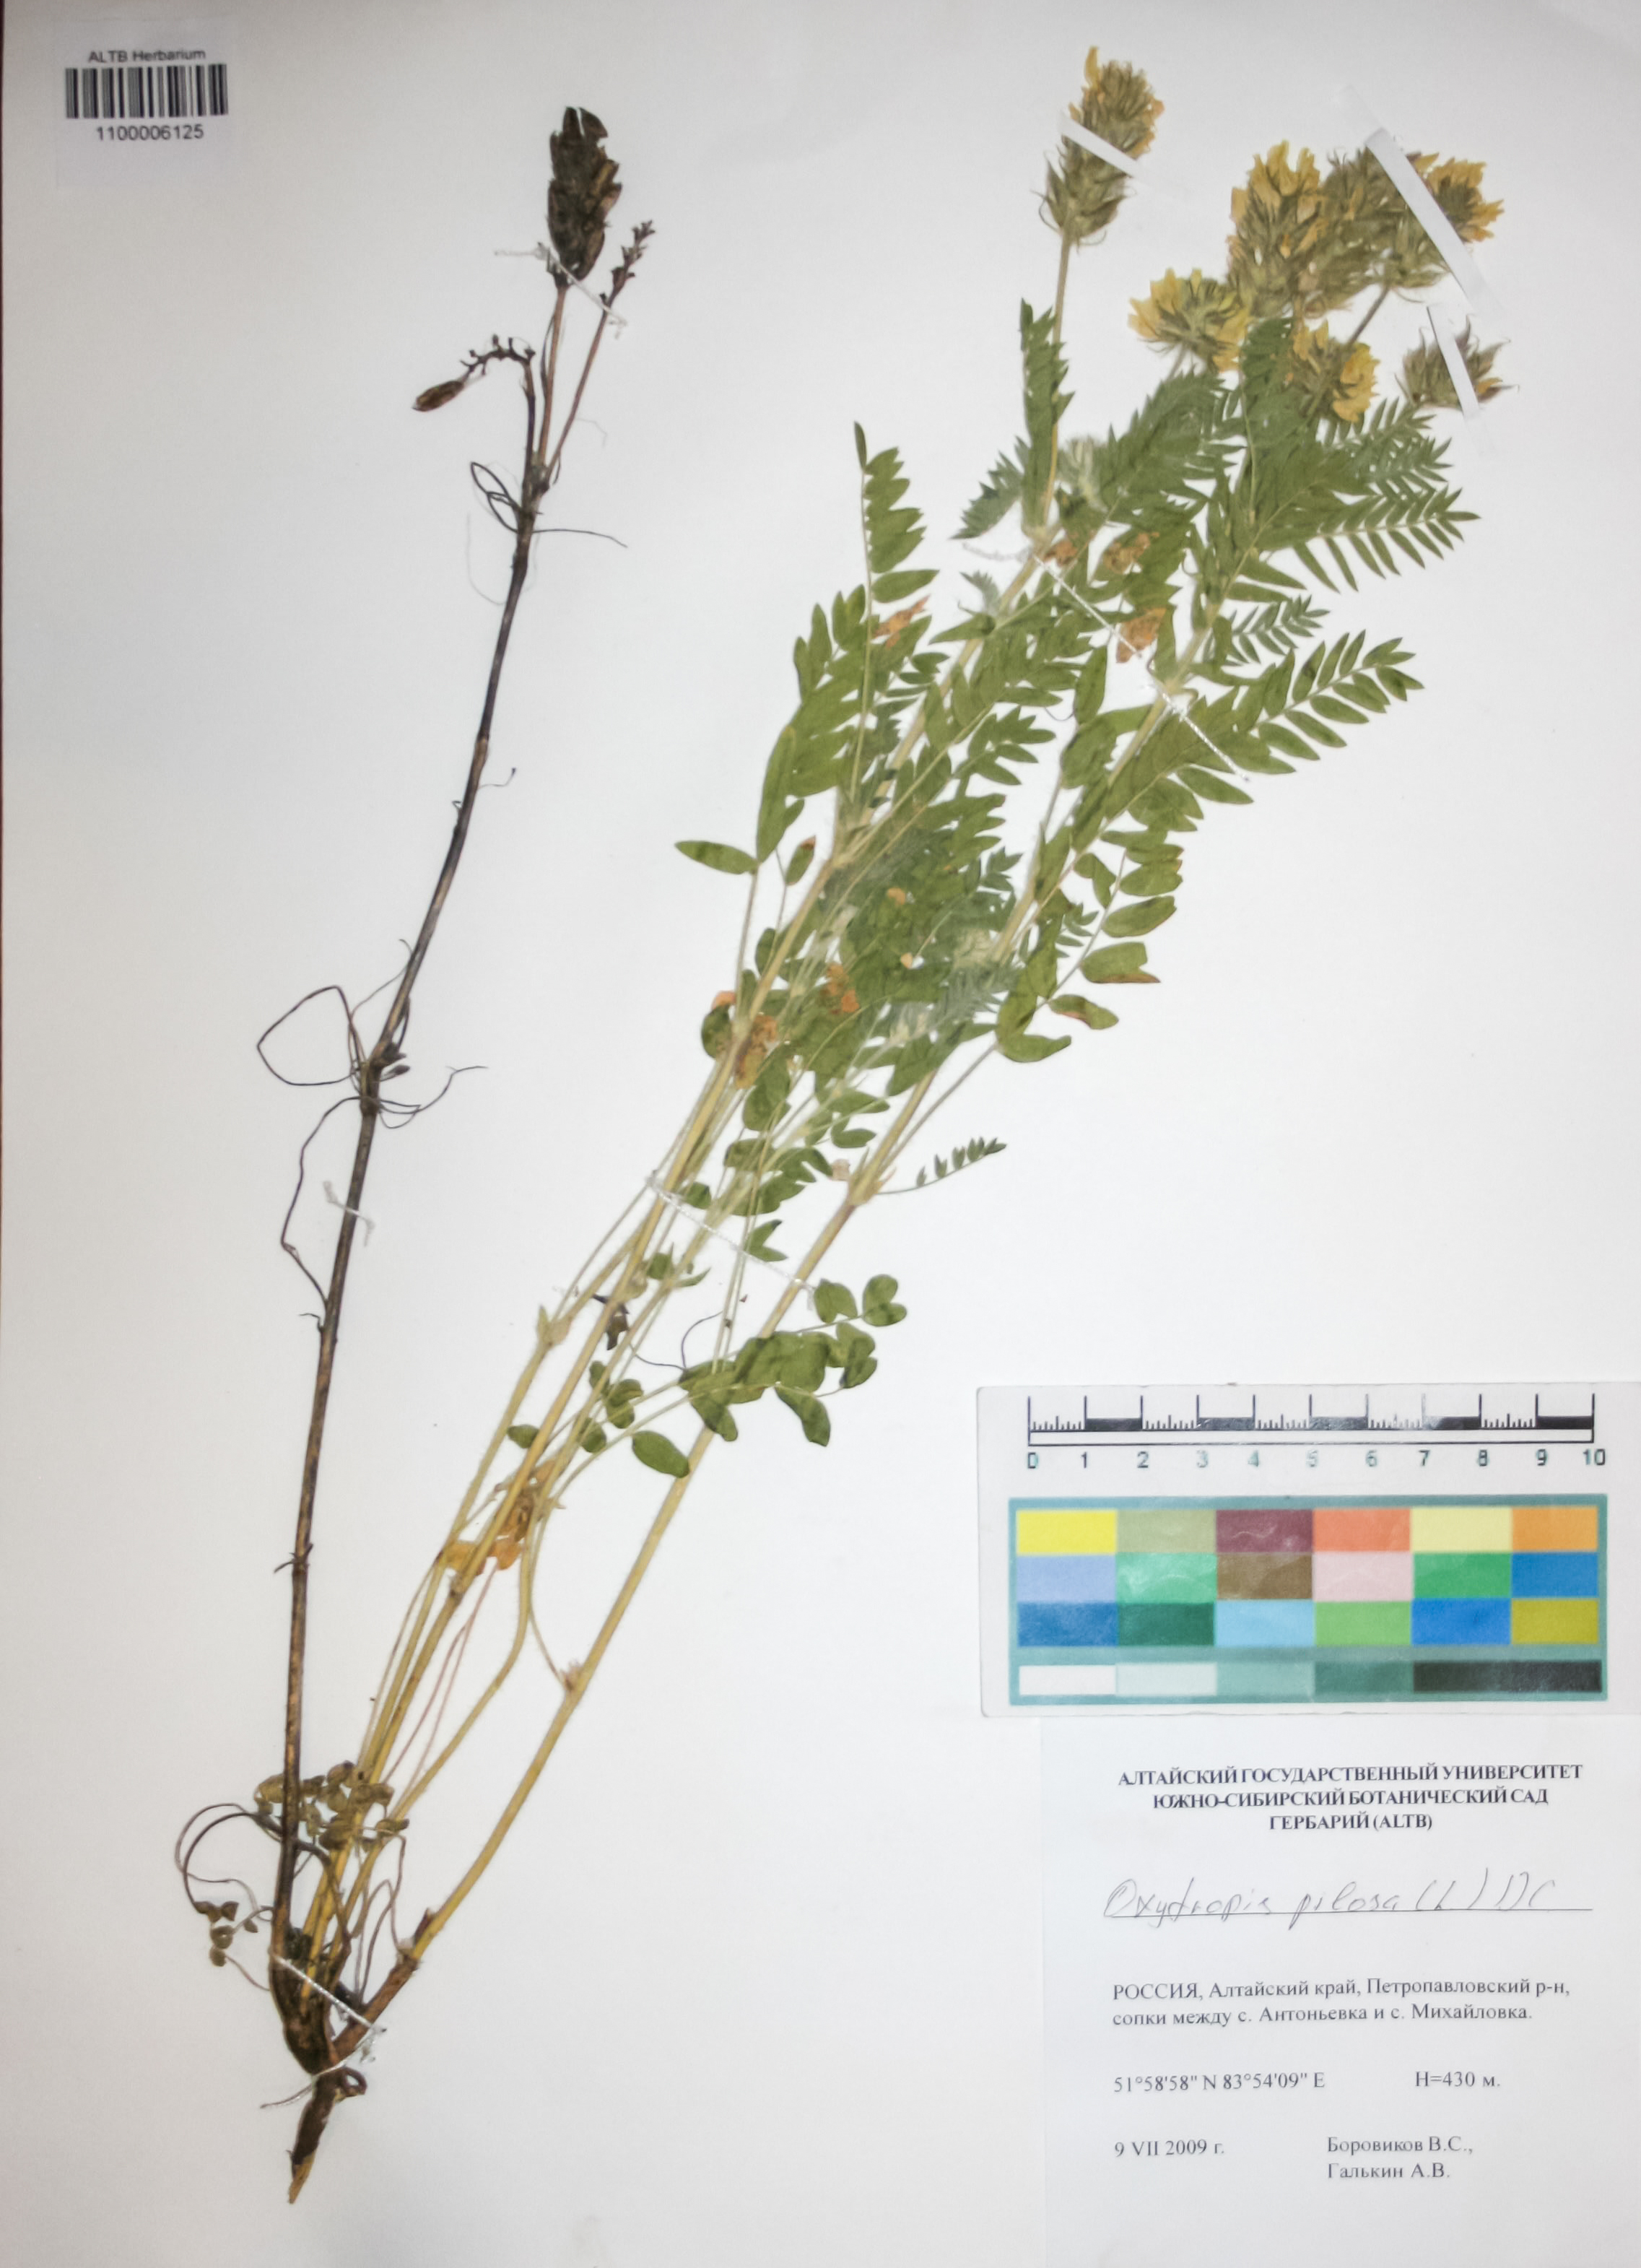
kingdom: Plantae
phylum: Tracheophyta
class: Magnoliopsida
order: Fabales
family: Fabaceae
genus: Oxytropis
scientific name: Oxytropis pilosa
